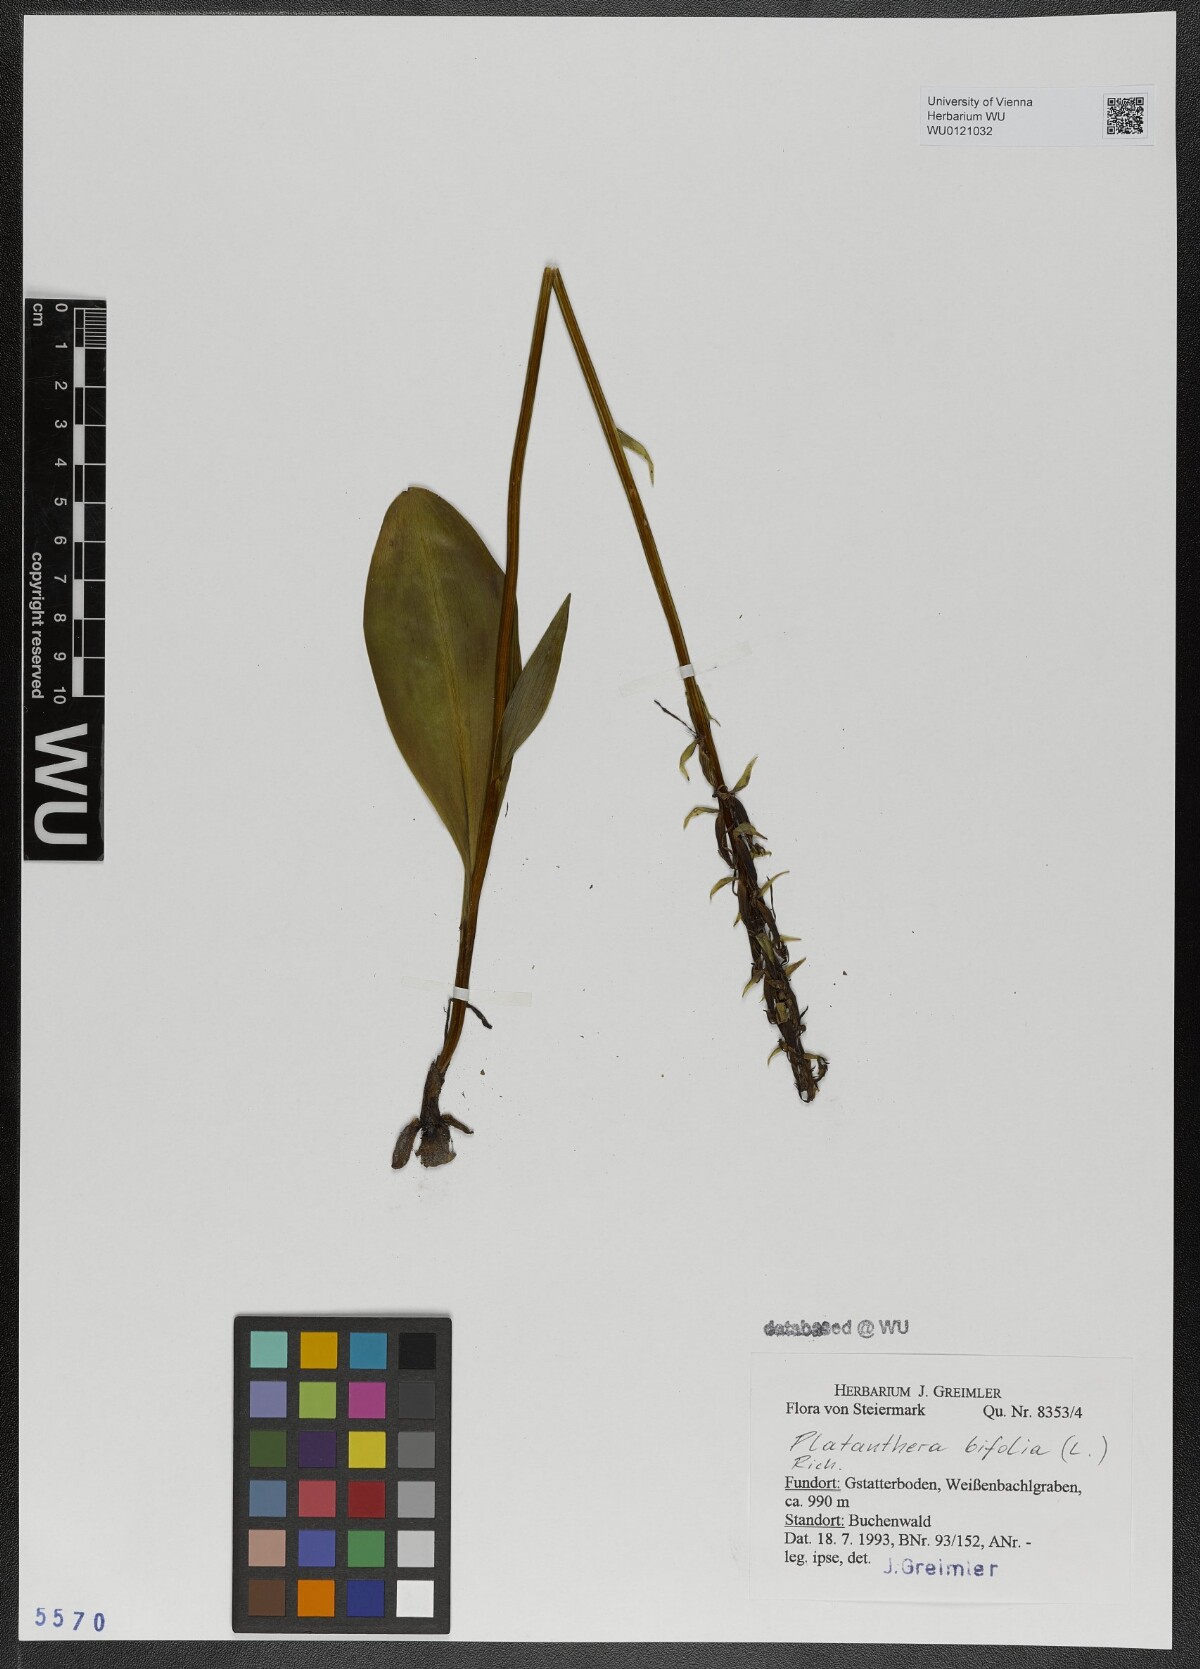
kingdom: Plantae
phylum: Tracheophyta
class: Liliopsida
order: Asparagales
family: Orchidaceae
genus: Platanthera
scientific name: Platanthera bifolia
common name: Lesser butterfly-orchid
